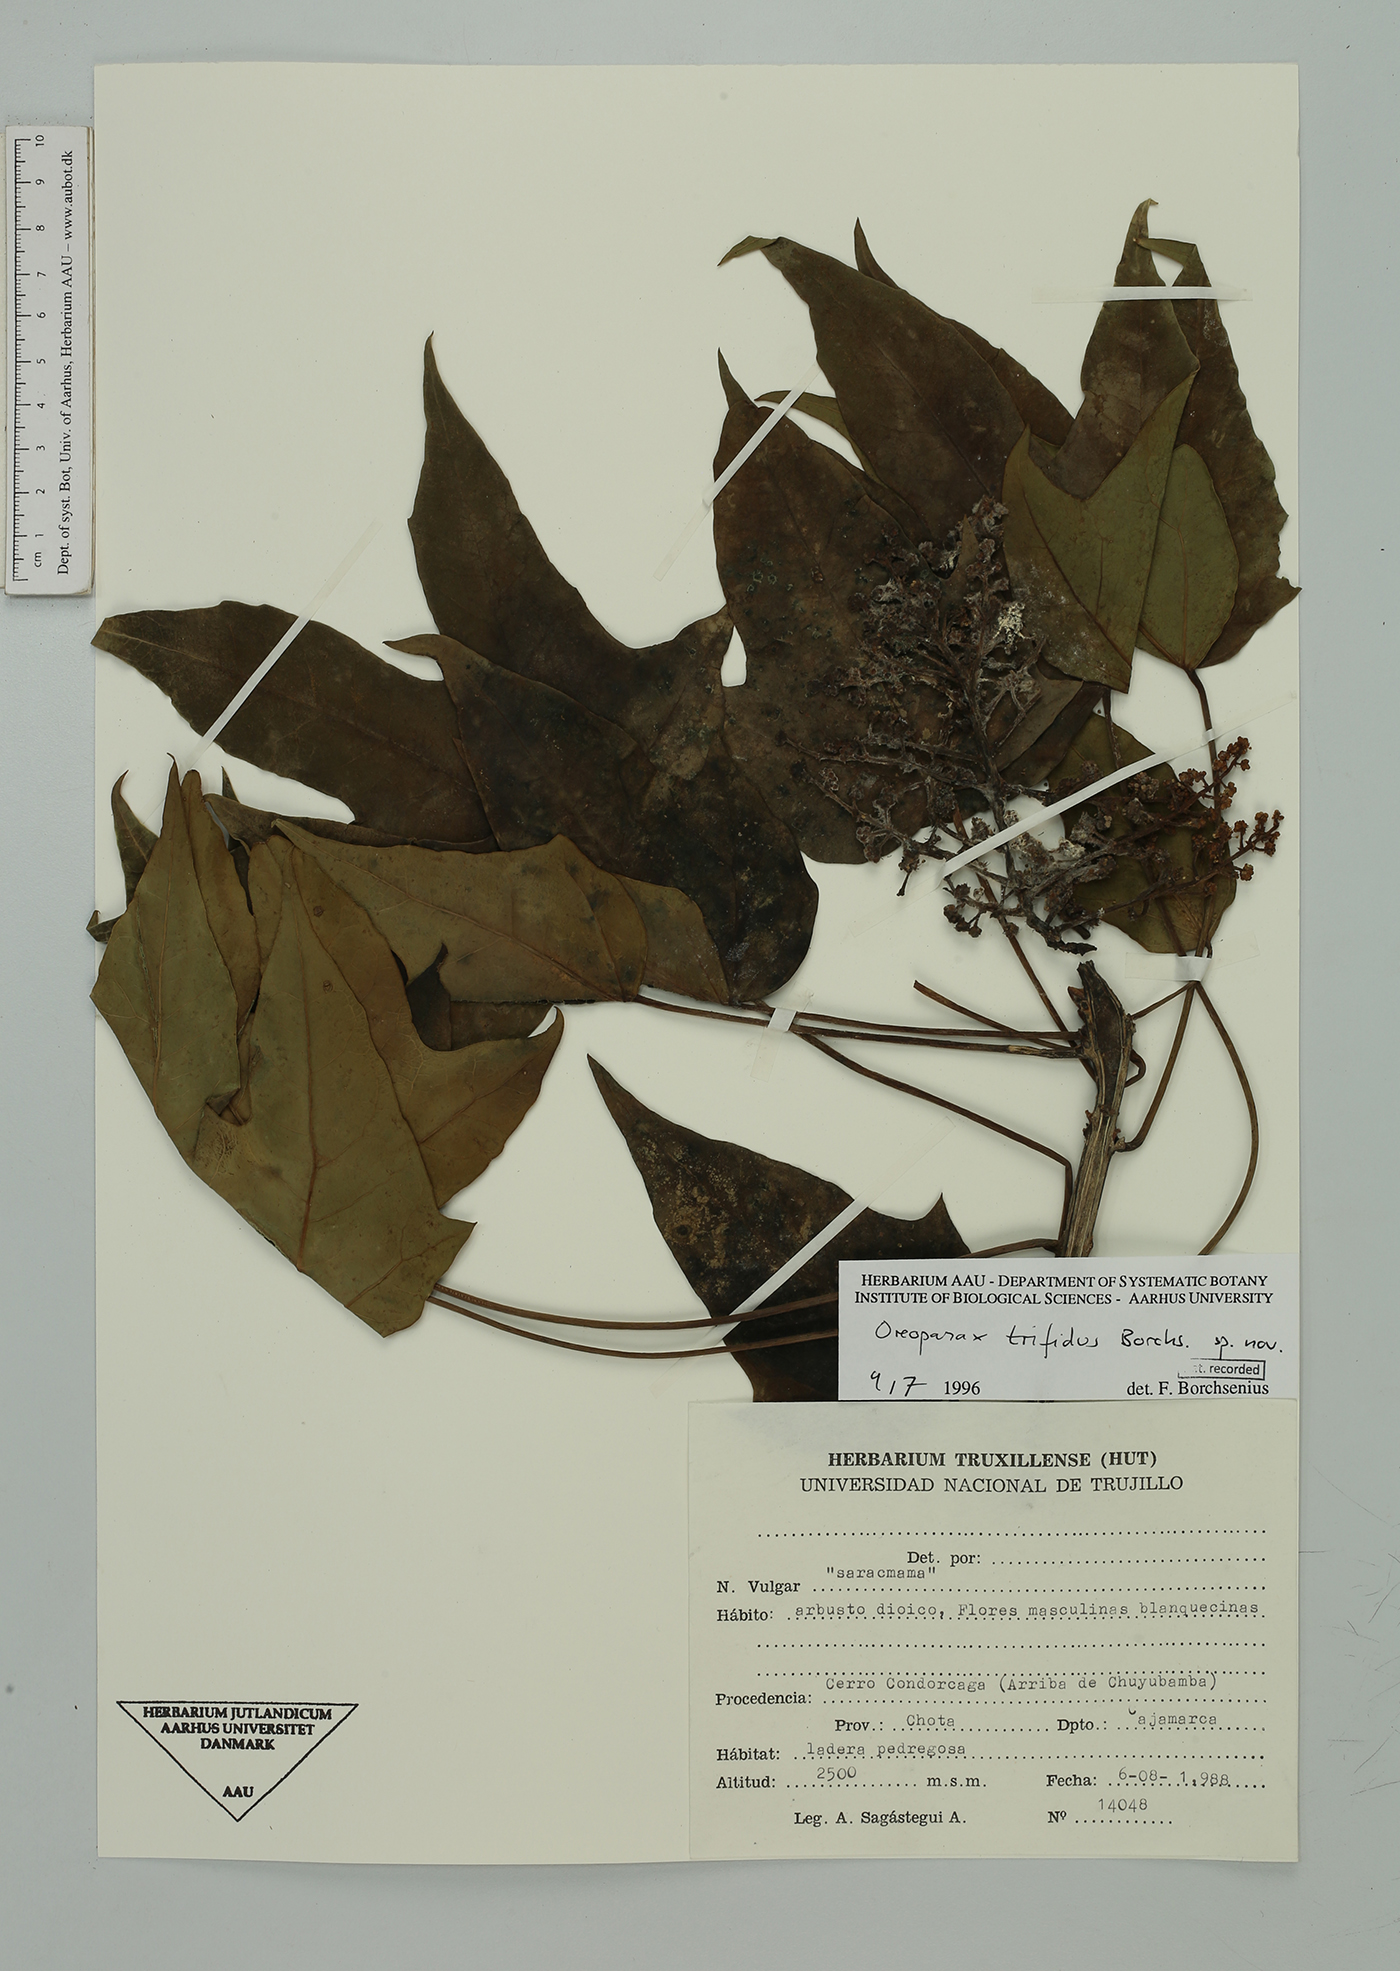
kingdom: Plantae
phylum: Tracheophyta
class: Magnoliopsida
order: Apiales
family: Araliaceae
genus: Oreopanax
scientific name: Oreopanax trifidus
